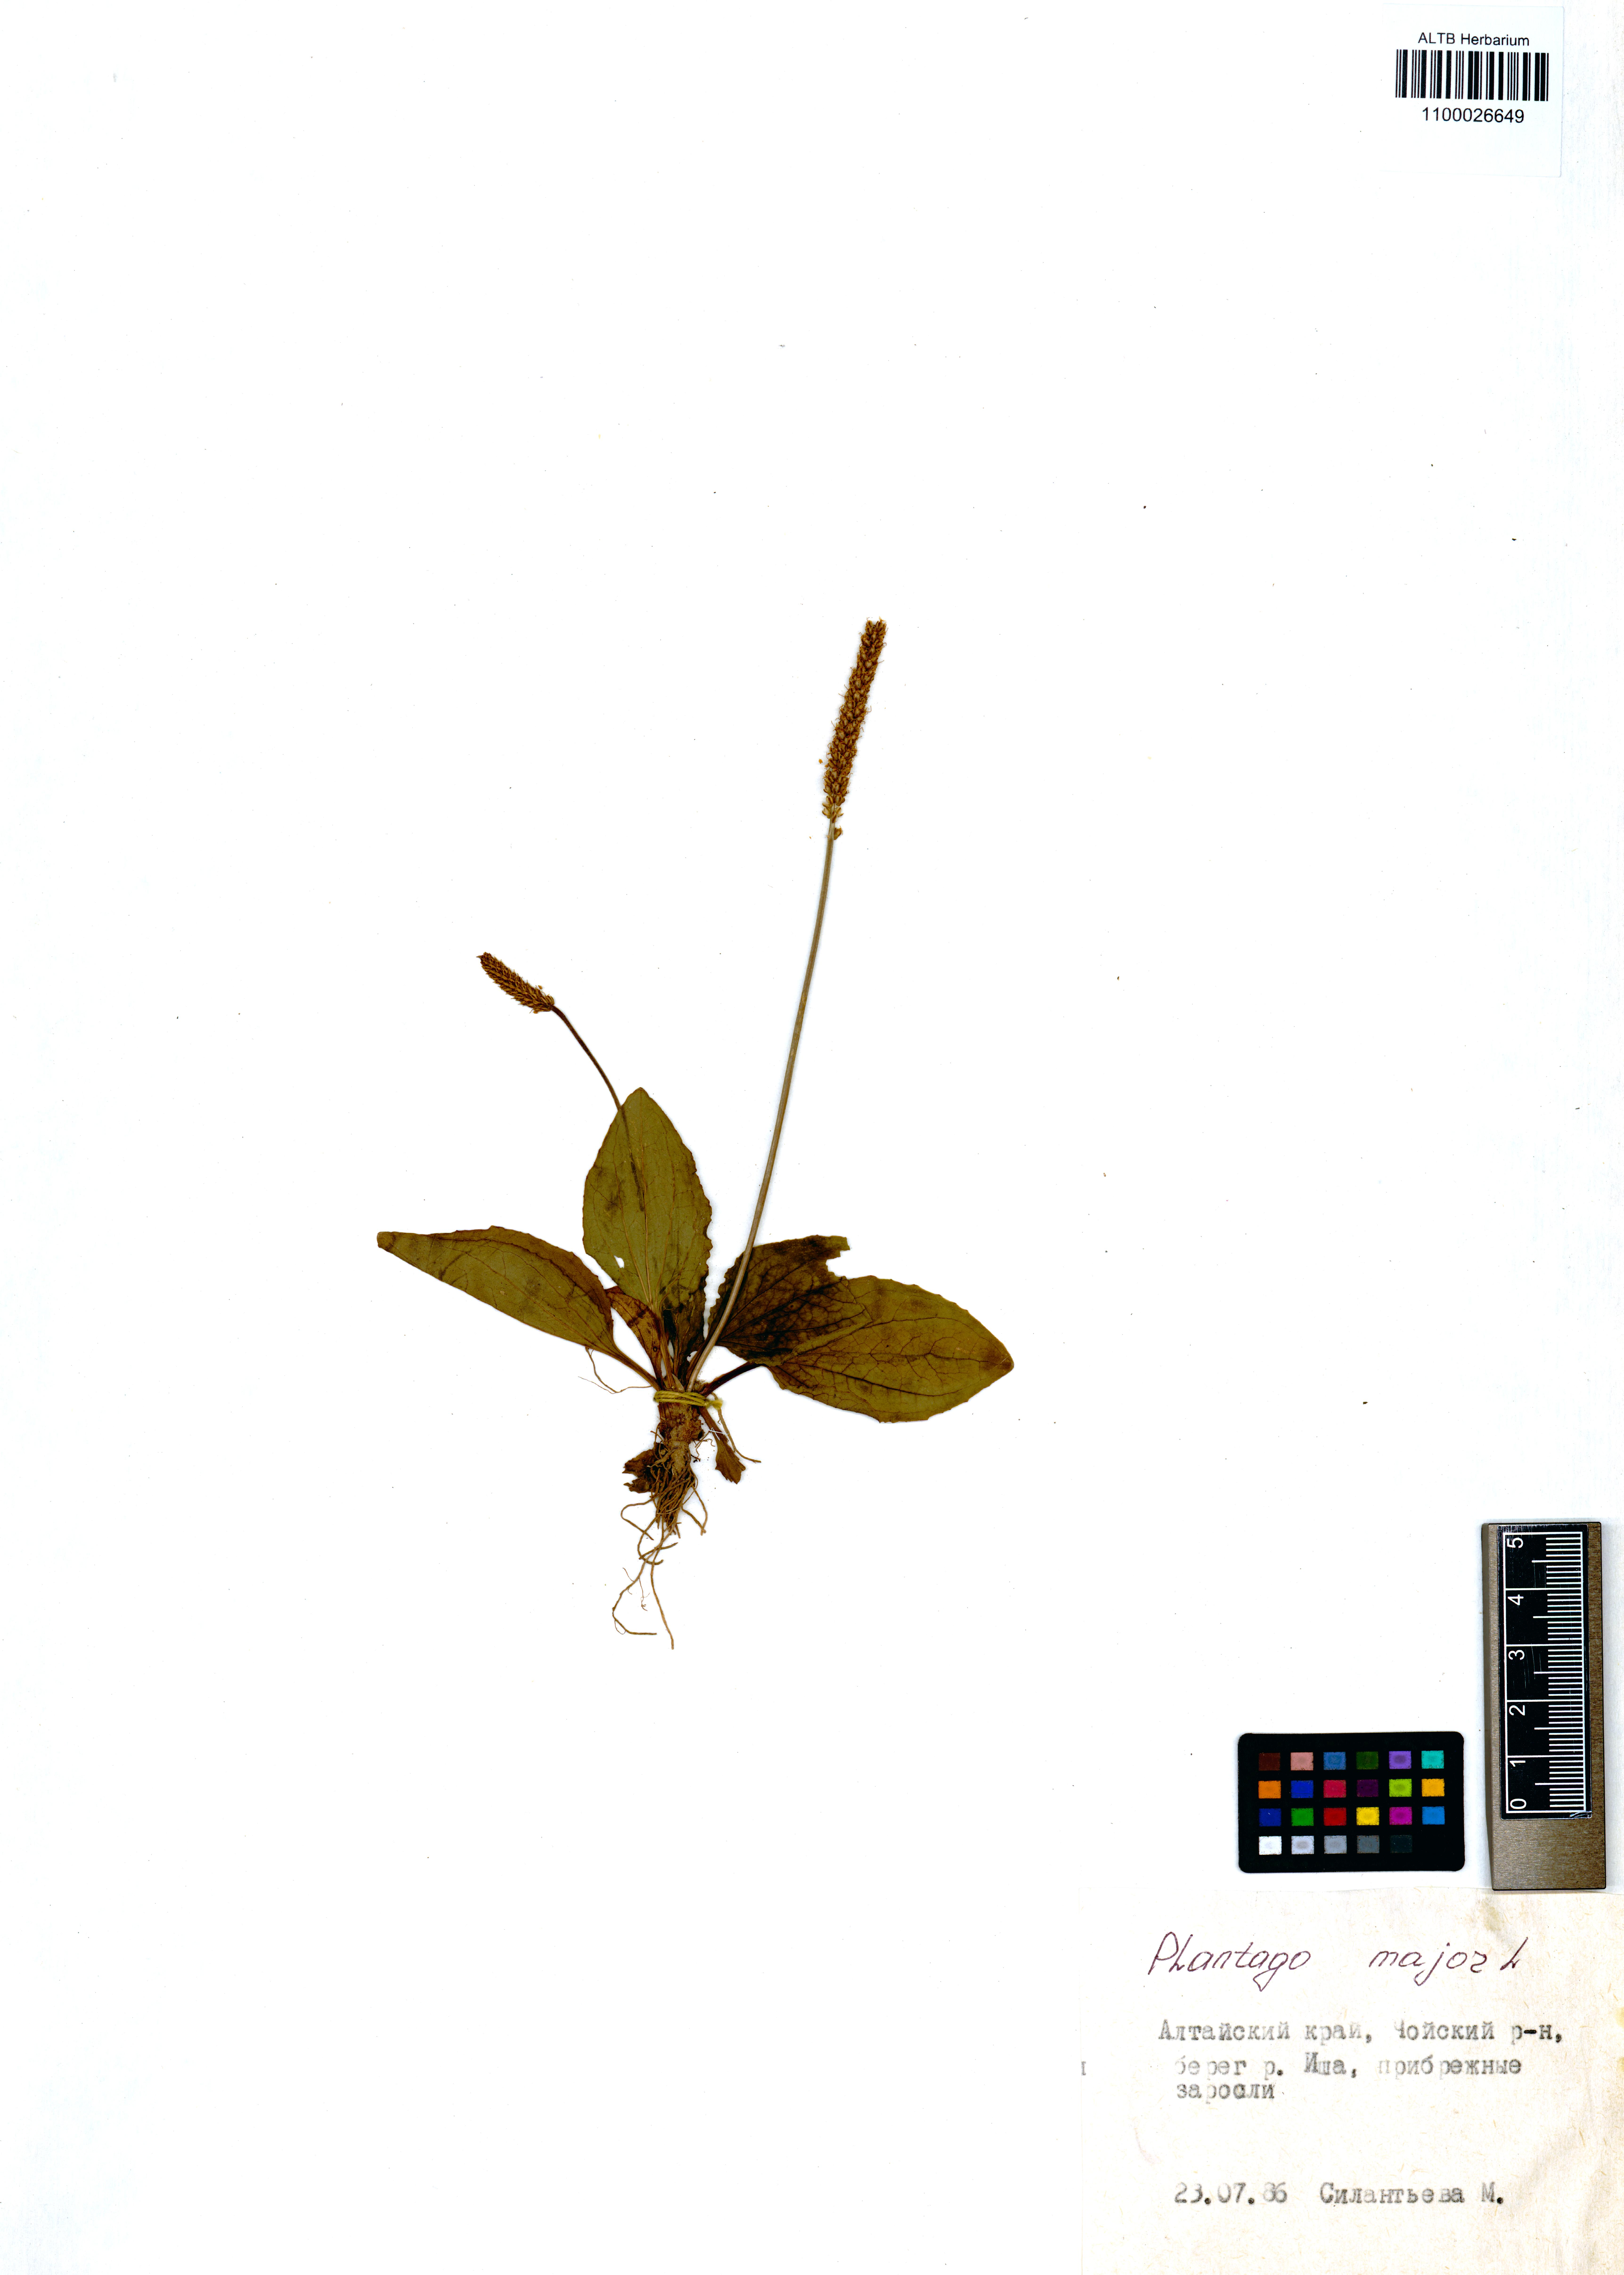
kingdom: Plantae
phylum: Tracheophyta
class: Magnoliopsida
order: Lamiales
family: Plantaginaceae
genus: Plantago
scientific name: Plantago major
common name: Common plantain
